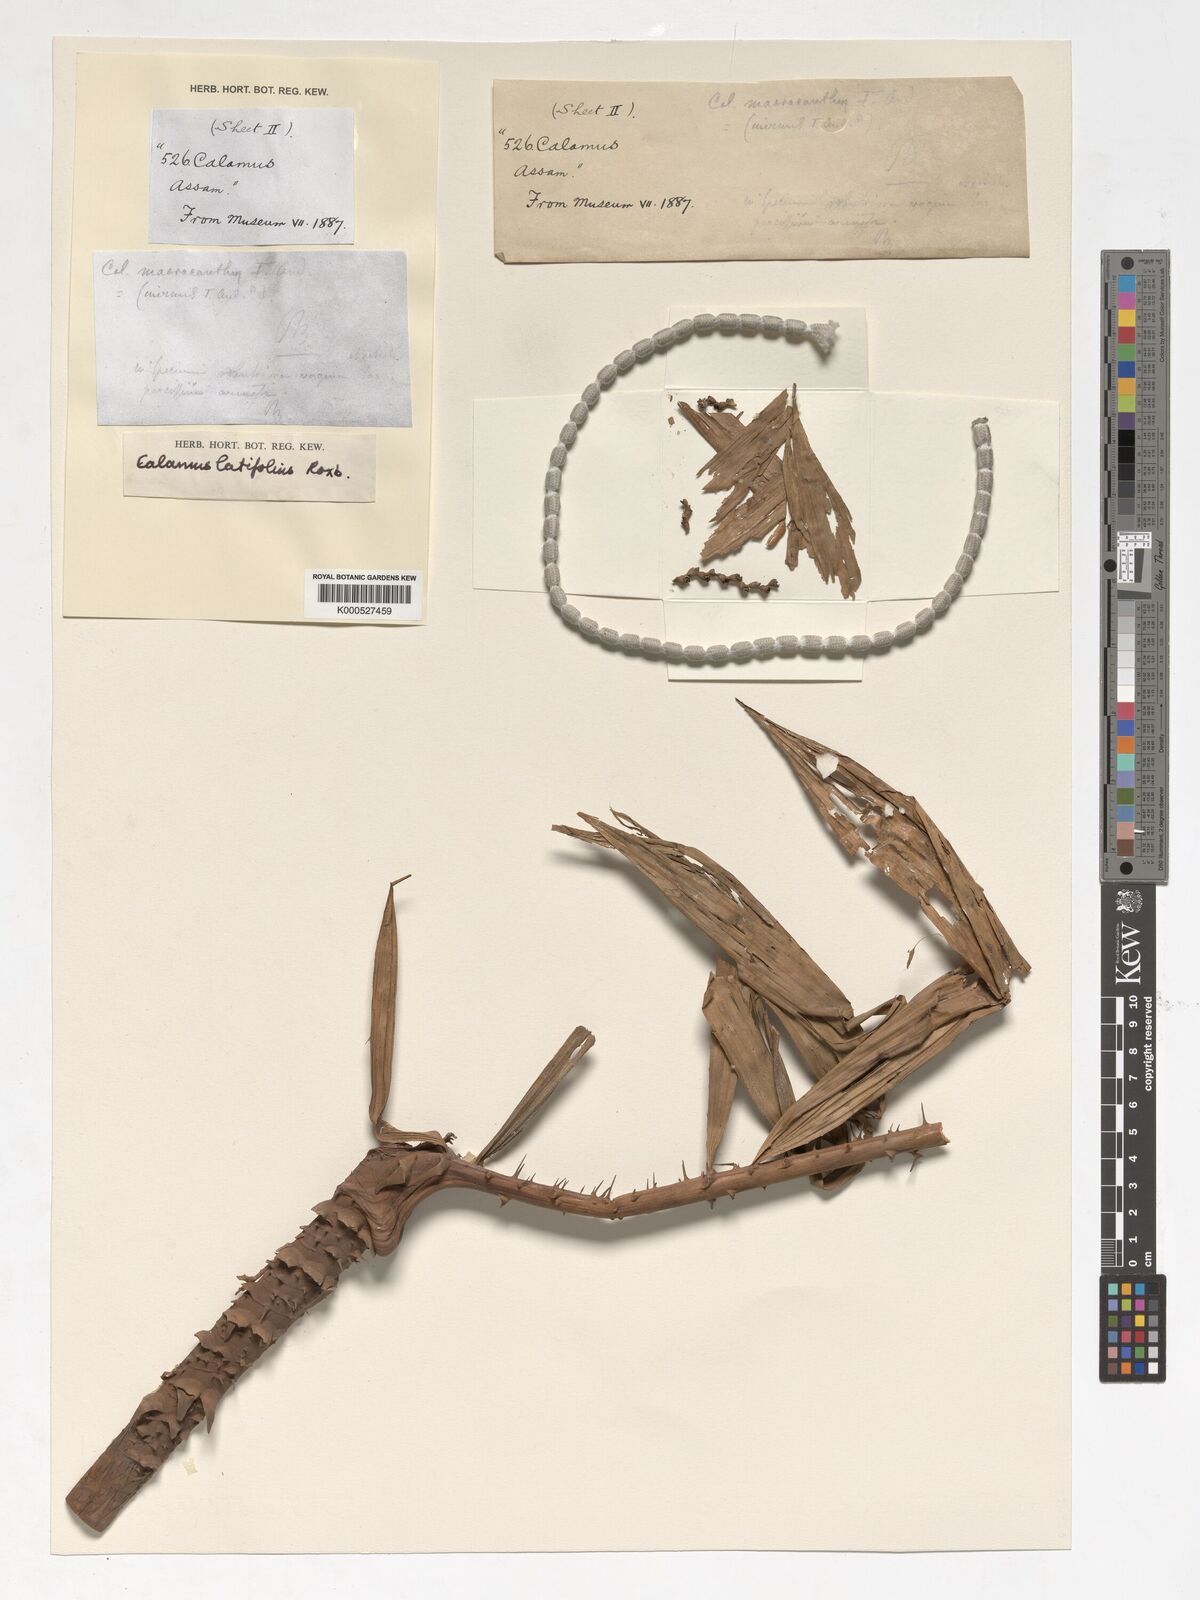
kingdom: Plantae
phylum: Tracheophyta
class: Liliopsida
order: Arecales
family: Arecaceae
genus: Calamus
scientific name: Calamus latifolius
